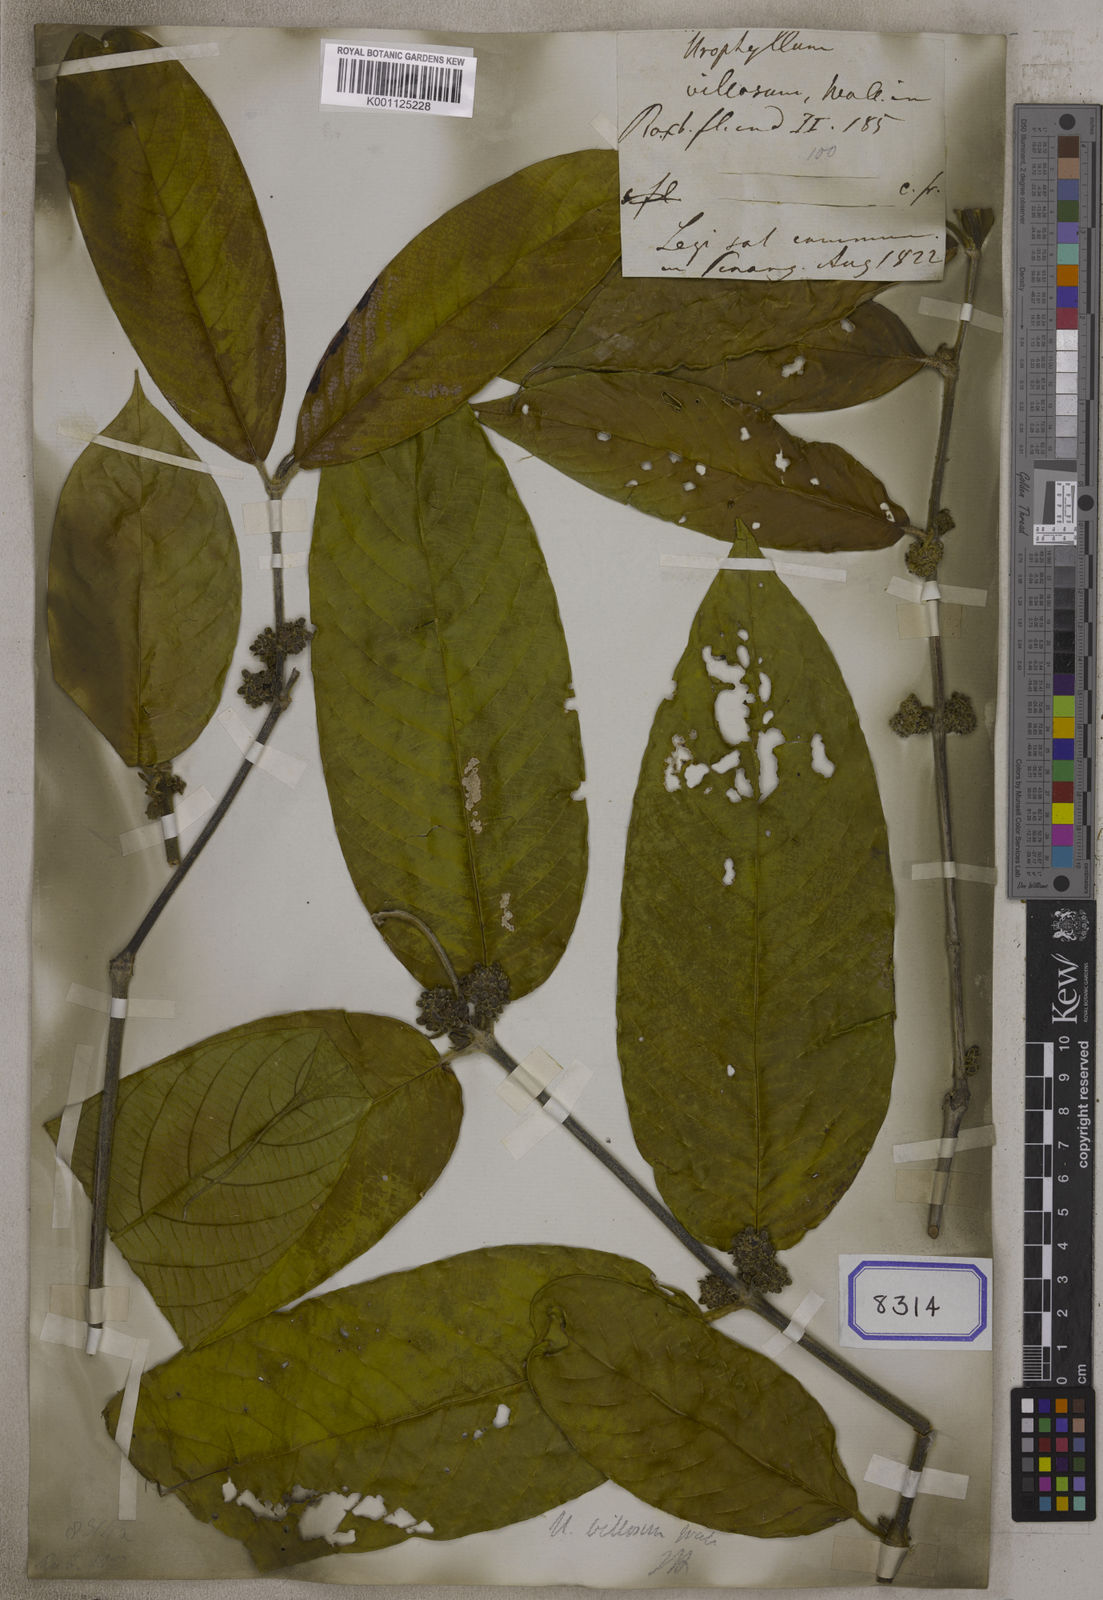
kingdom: Plantae
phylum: Tracheophyta
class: Magnoliopsida
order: Gentianales
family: Rubiaceae
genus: Urophyllum
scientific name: Urophyllum villosum
